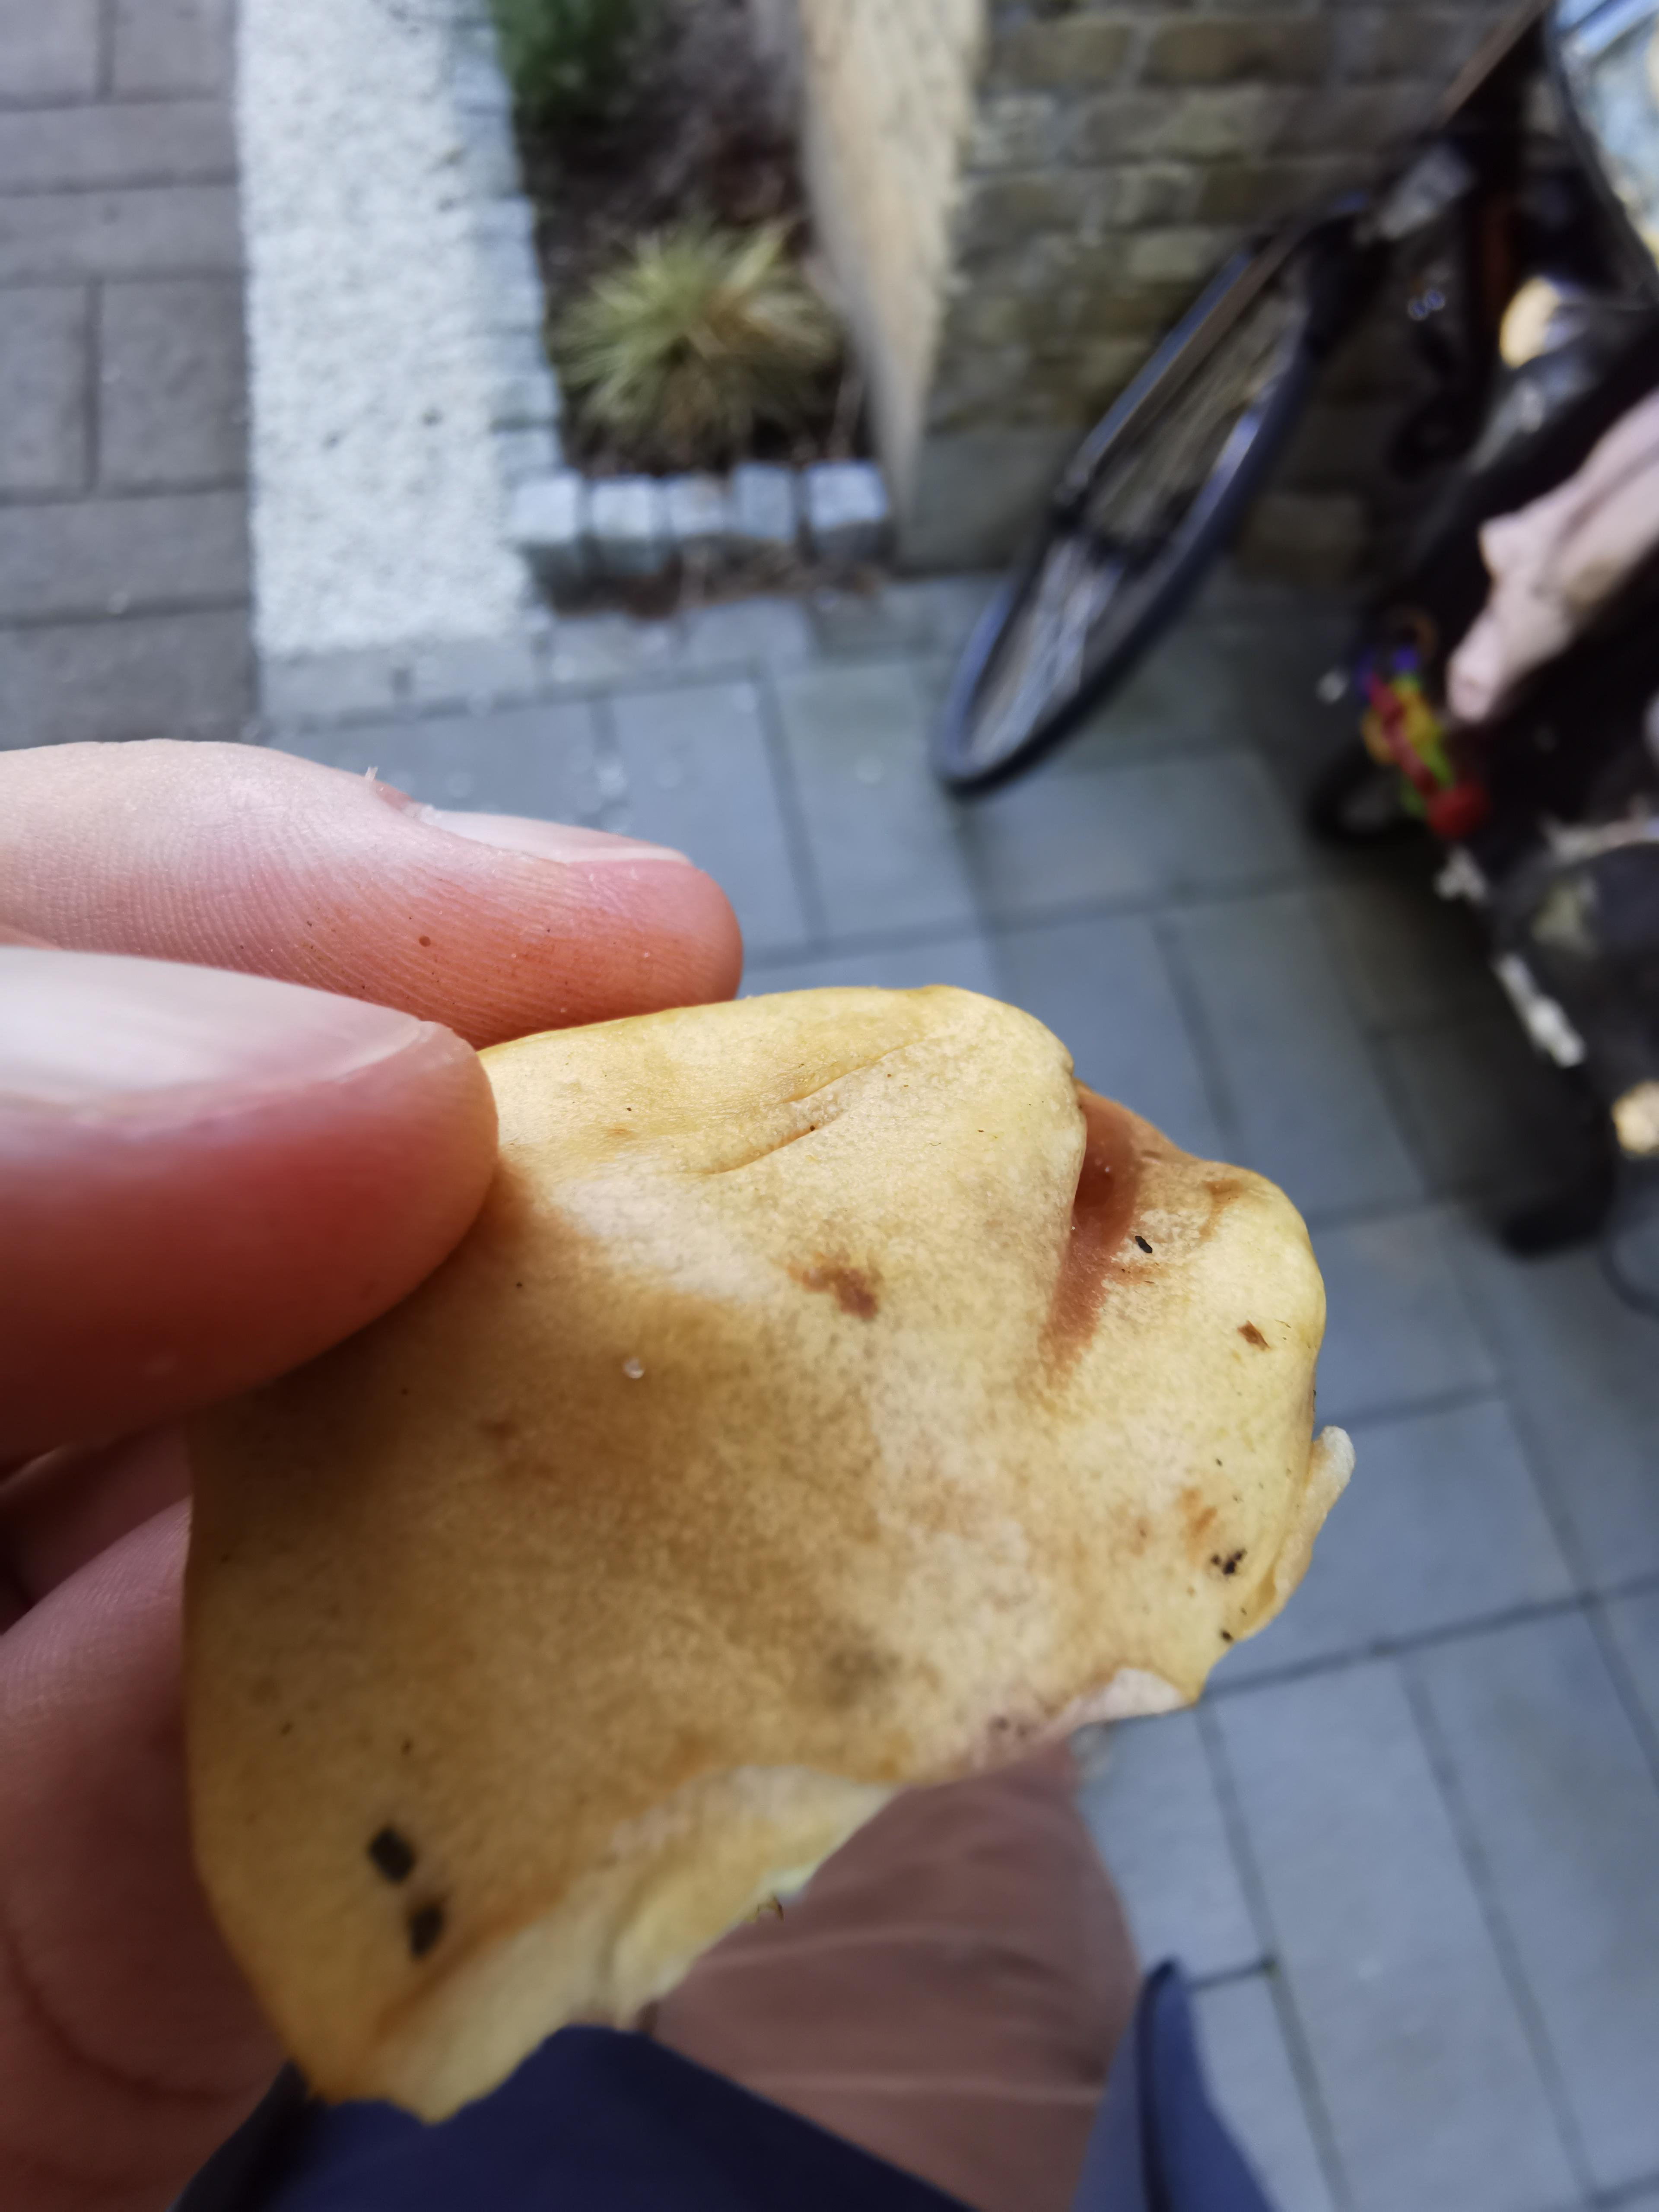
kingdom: Fungi
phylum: Basidiomycota
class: Agaricomycetes
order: Boletales
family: Suillaceae
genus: Suillus
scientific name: Suillus granulatus
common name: kornet slimrørhat
